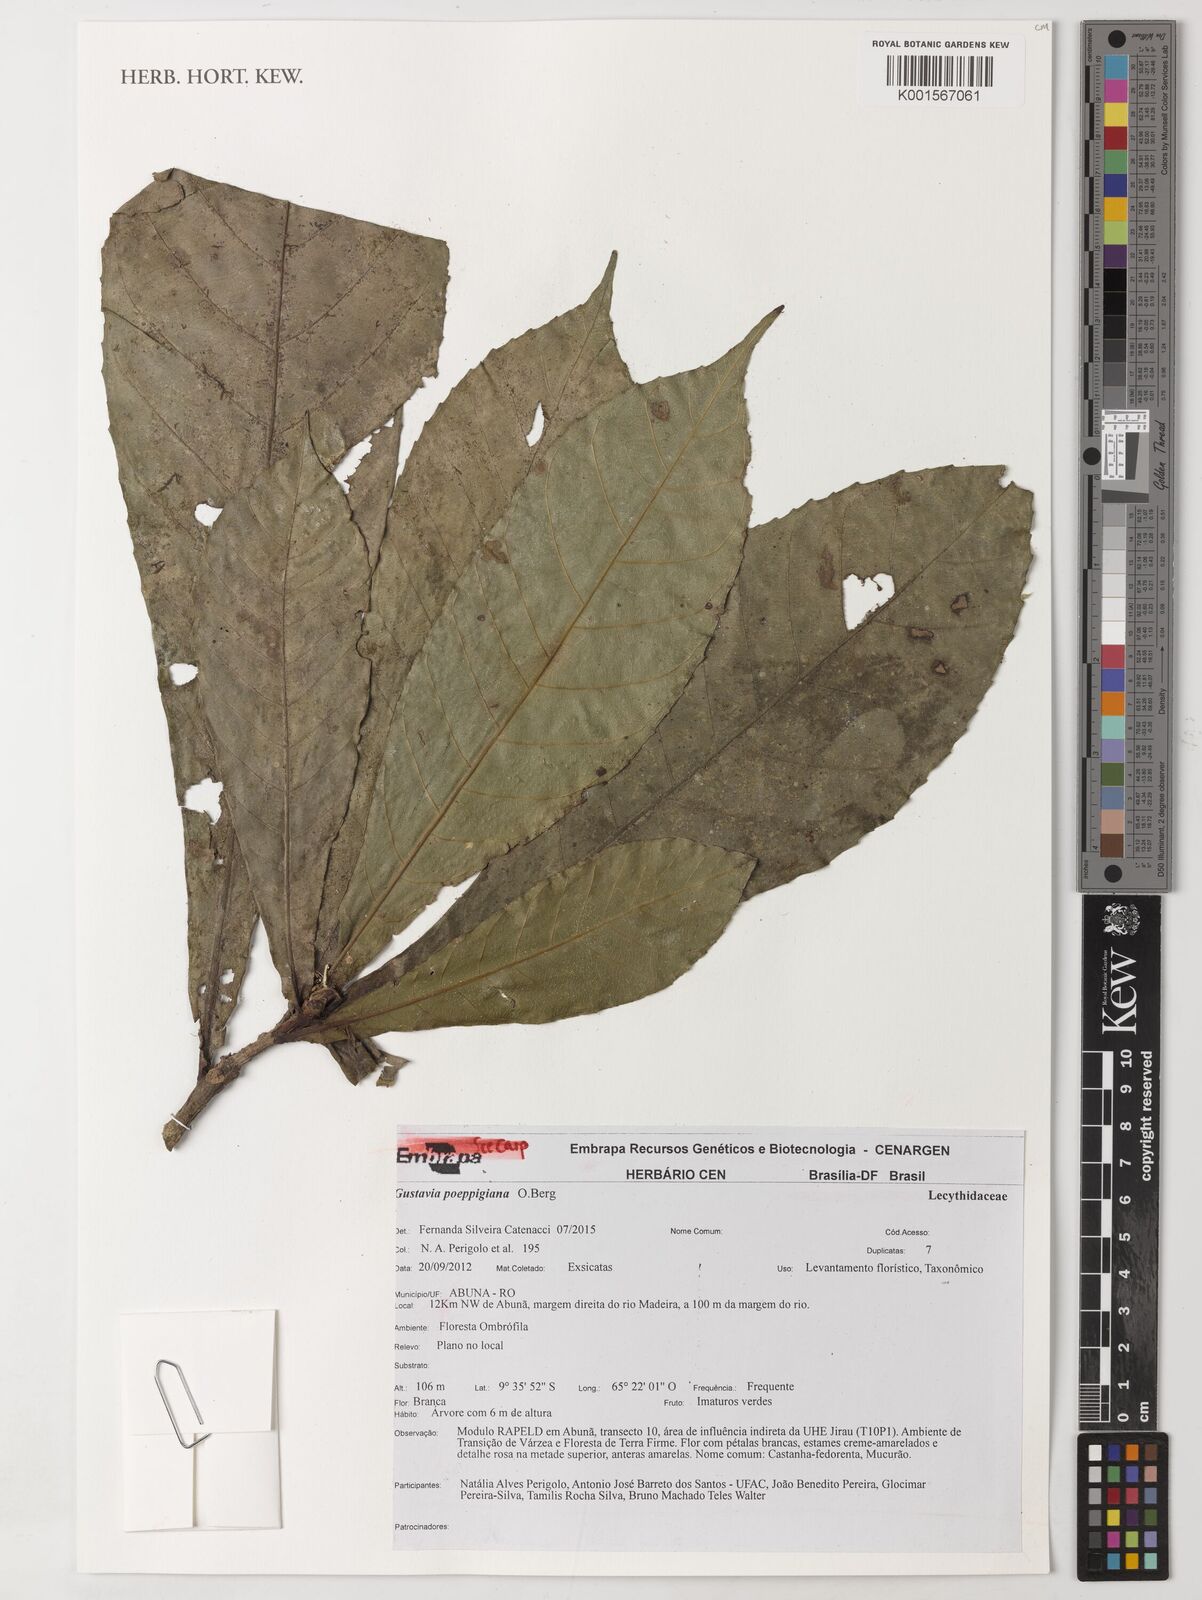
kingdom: Plantae
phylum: Tracheophyta
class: Magnoliopsida
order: Ericales
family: Lecythidaceae
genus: Gustavia
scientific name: Gustavia poeppigiana
